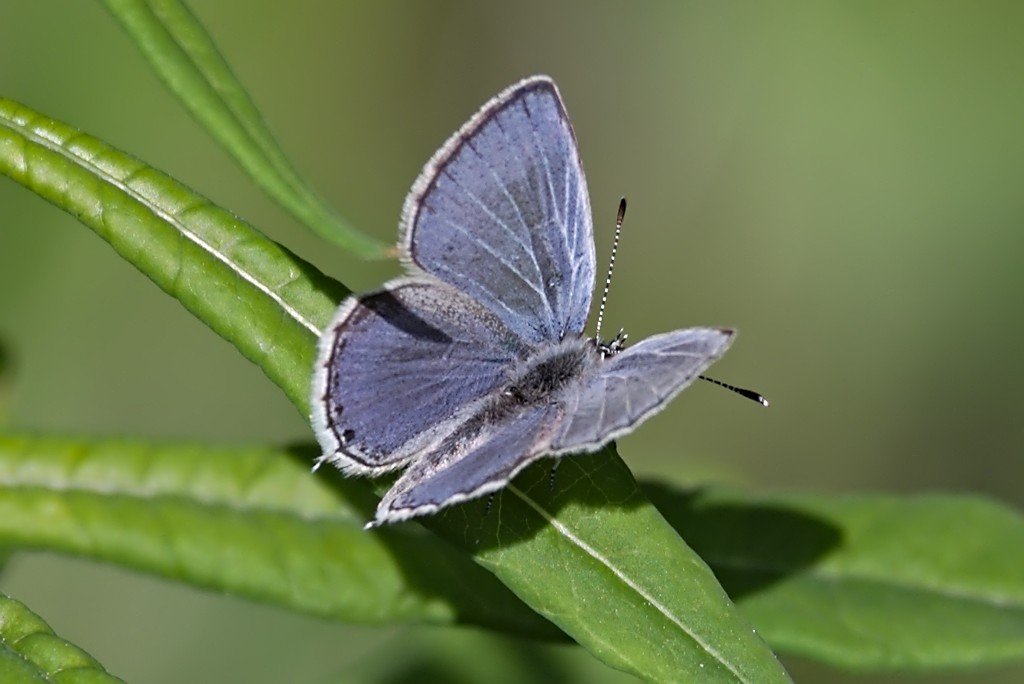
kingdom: Animalia
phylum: Arthropoda
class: Insecta
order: Lepidoptera
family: Lycaenidae
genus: Elkalyce
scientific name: Elkalyce amyntula
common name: Western Tailed-Blue
